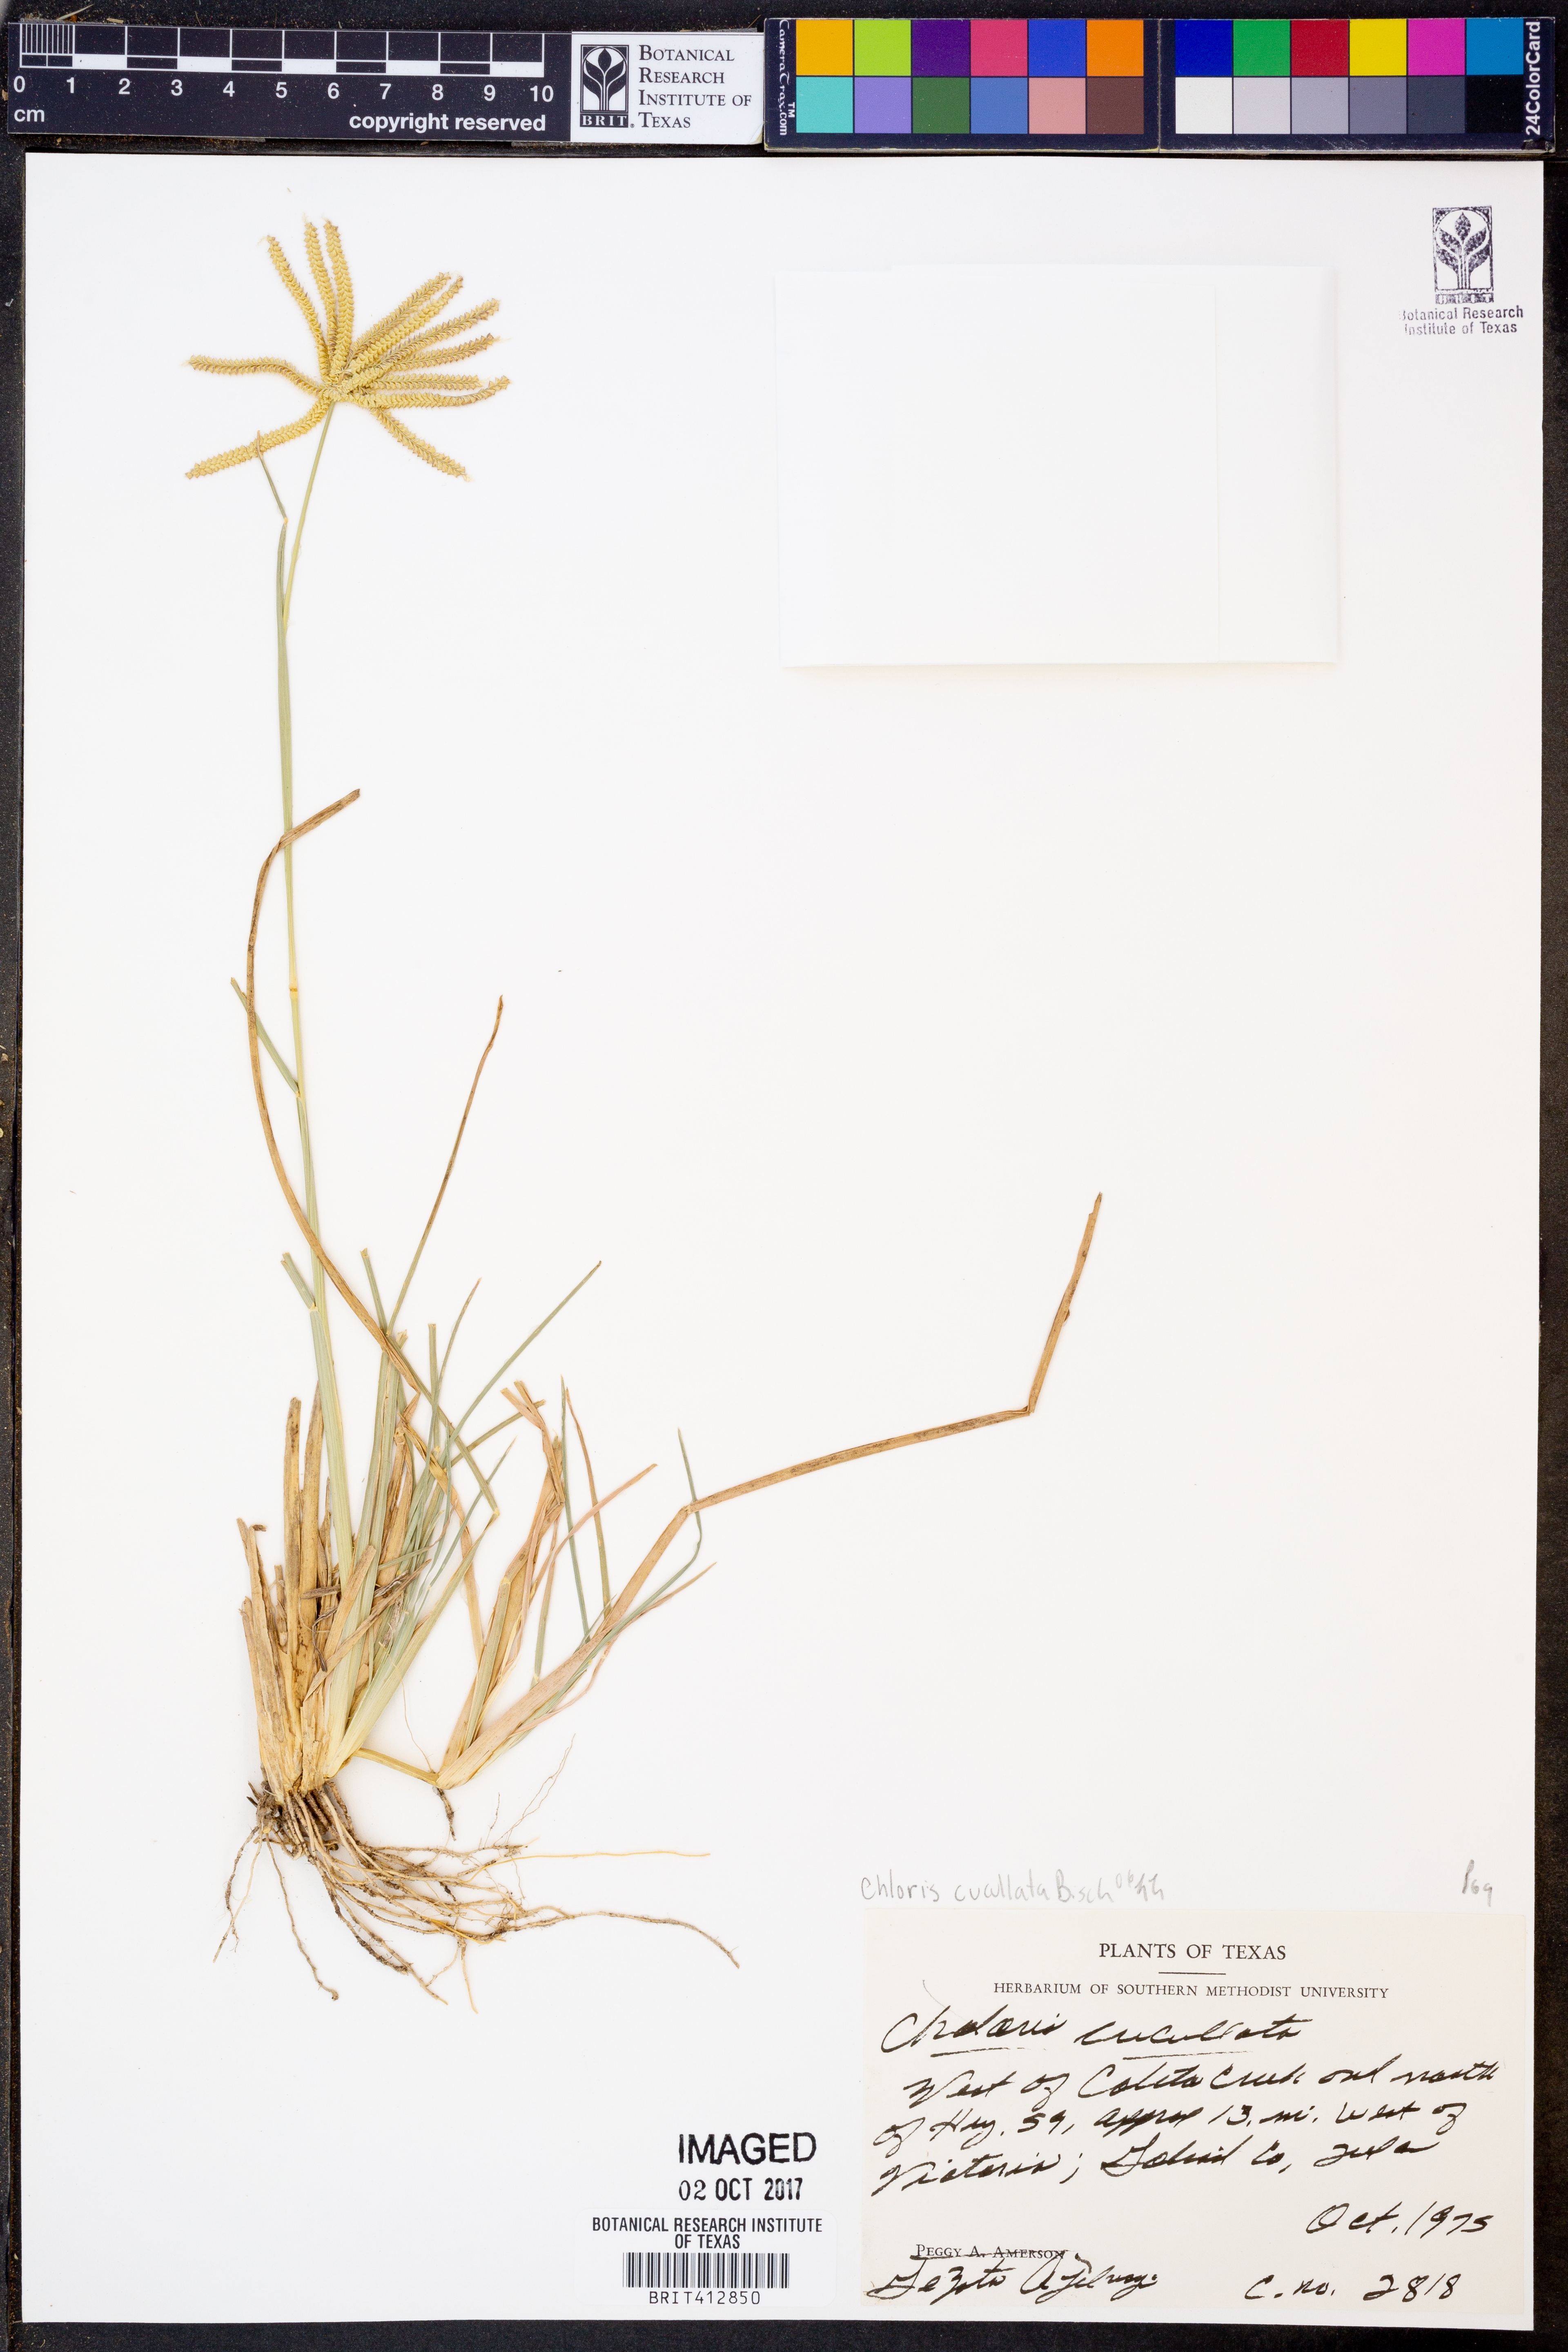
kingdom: Plantae
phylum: Tracheophyta
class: Liliopsida
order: Poales
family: Poaceae
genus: Chloris
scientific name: Chloris cucullata
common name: Hooded windmill grass
